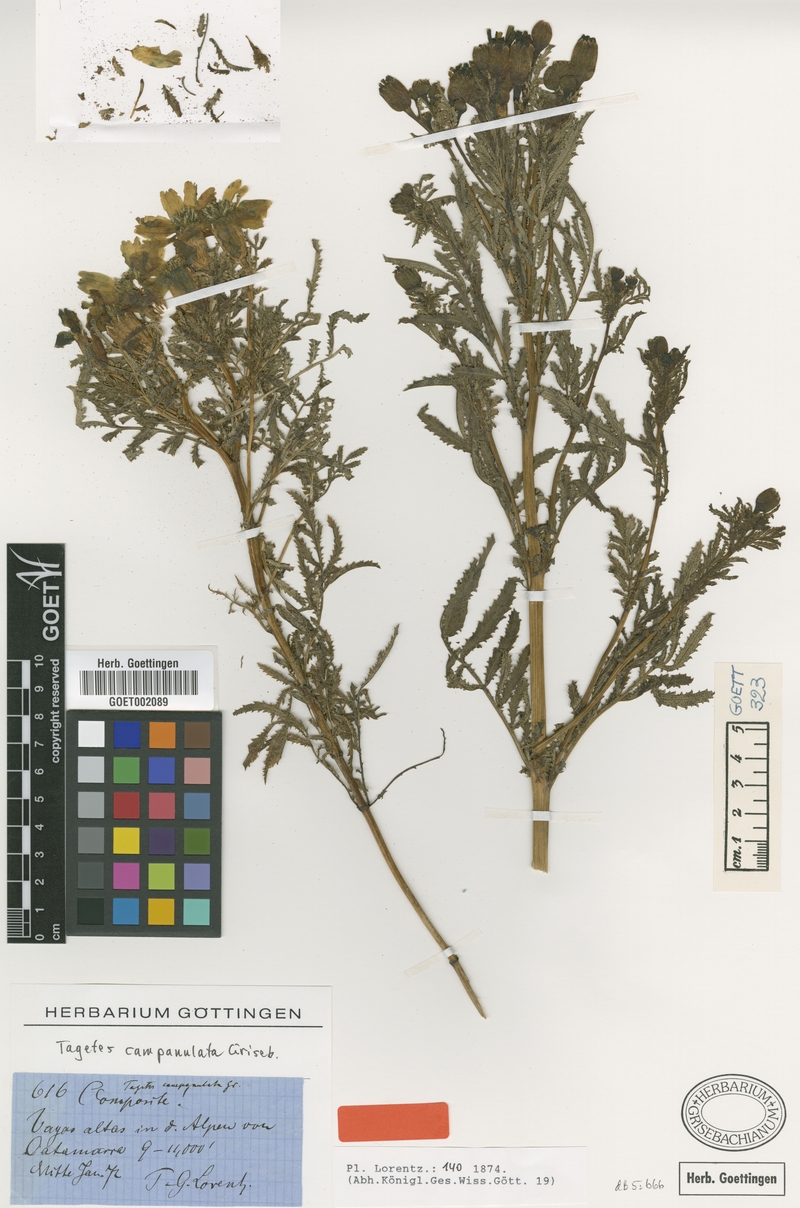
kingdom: Plantae
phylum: Tracheophyta
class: Magnoliopsida
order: Asterales
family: Asteraceae
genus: Tagetes
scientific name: Tagetes campanulata
